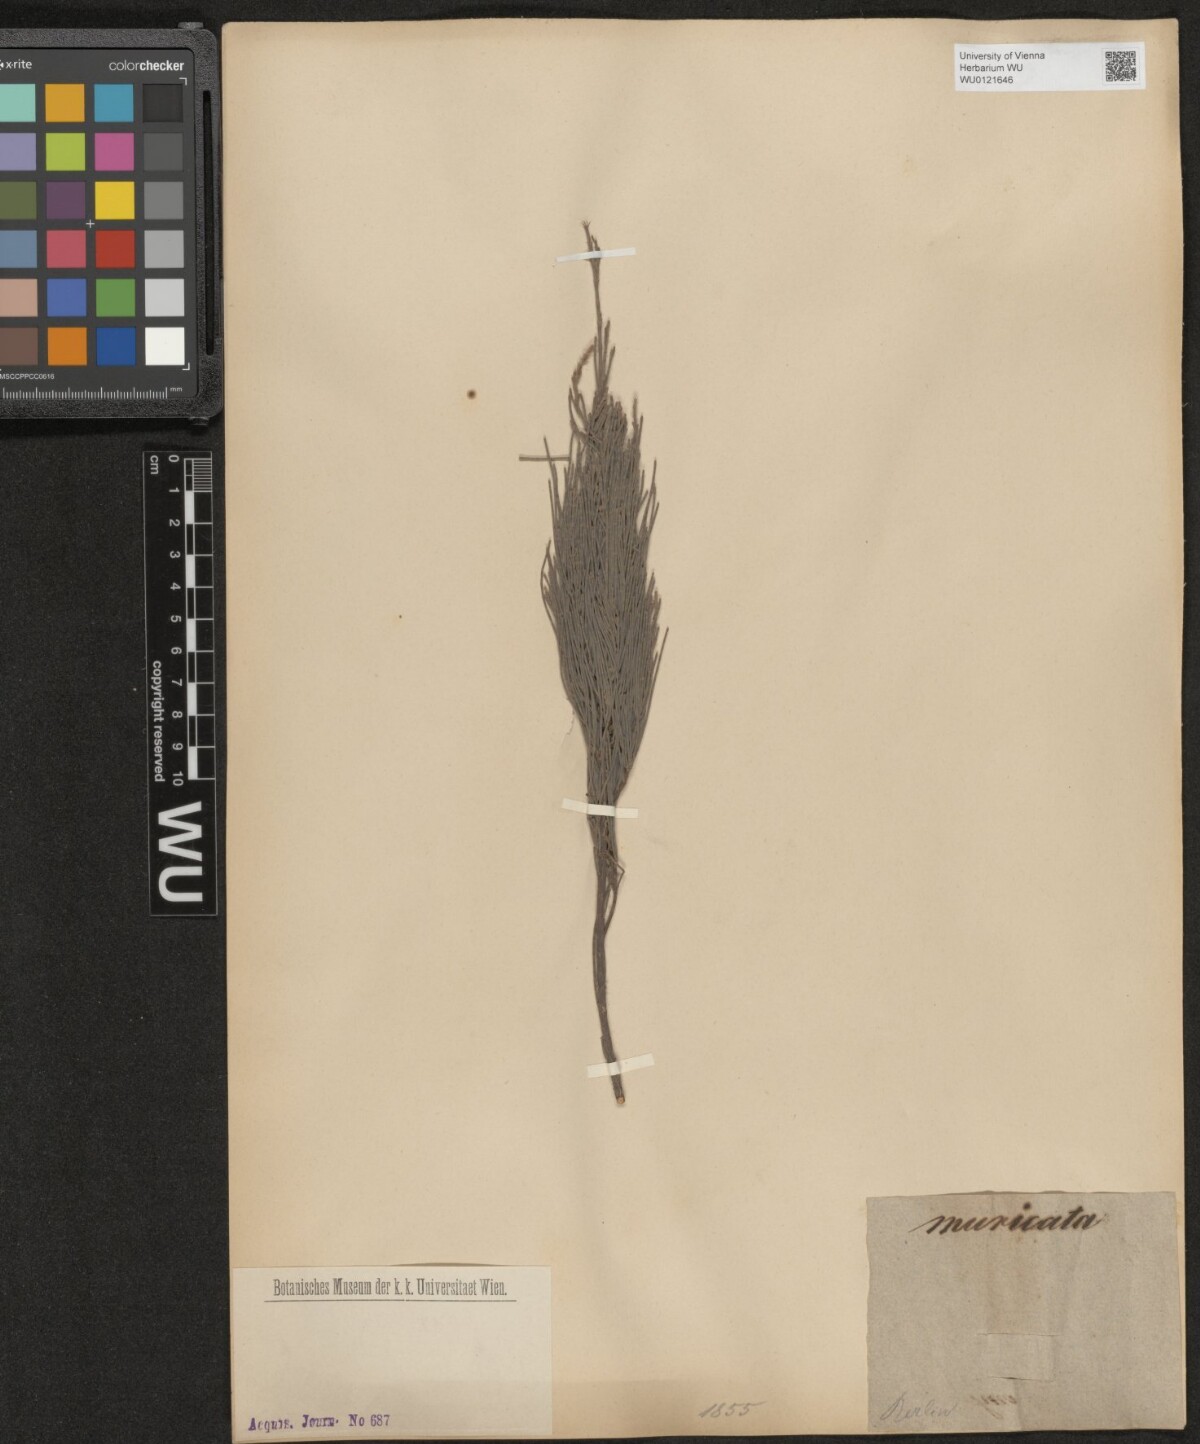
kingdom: Plantae
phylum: Tracheophyta
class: Magnoliopsida
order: Fagales
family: Casuarinaceae
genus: Casuarina
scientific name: Casuarina junghuhniana
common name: Mountain ru
